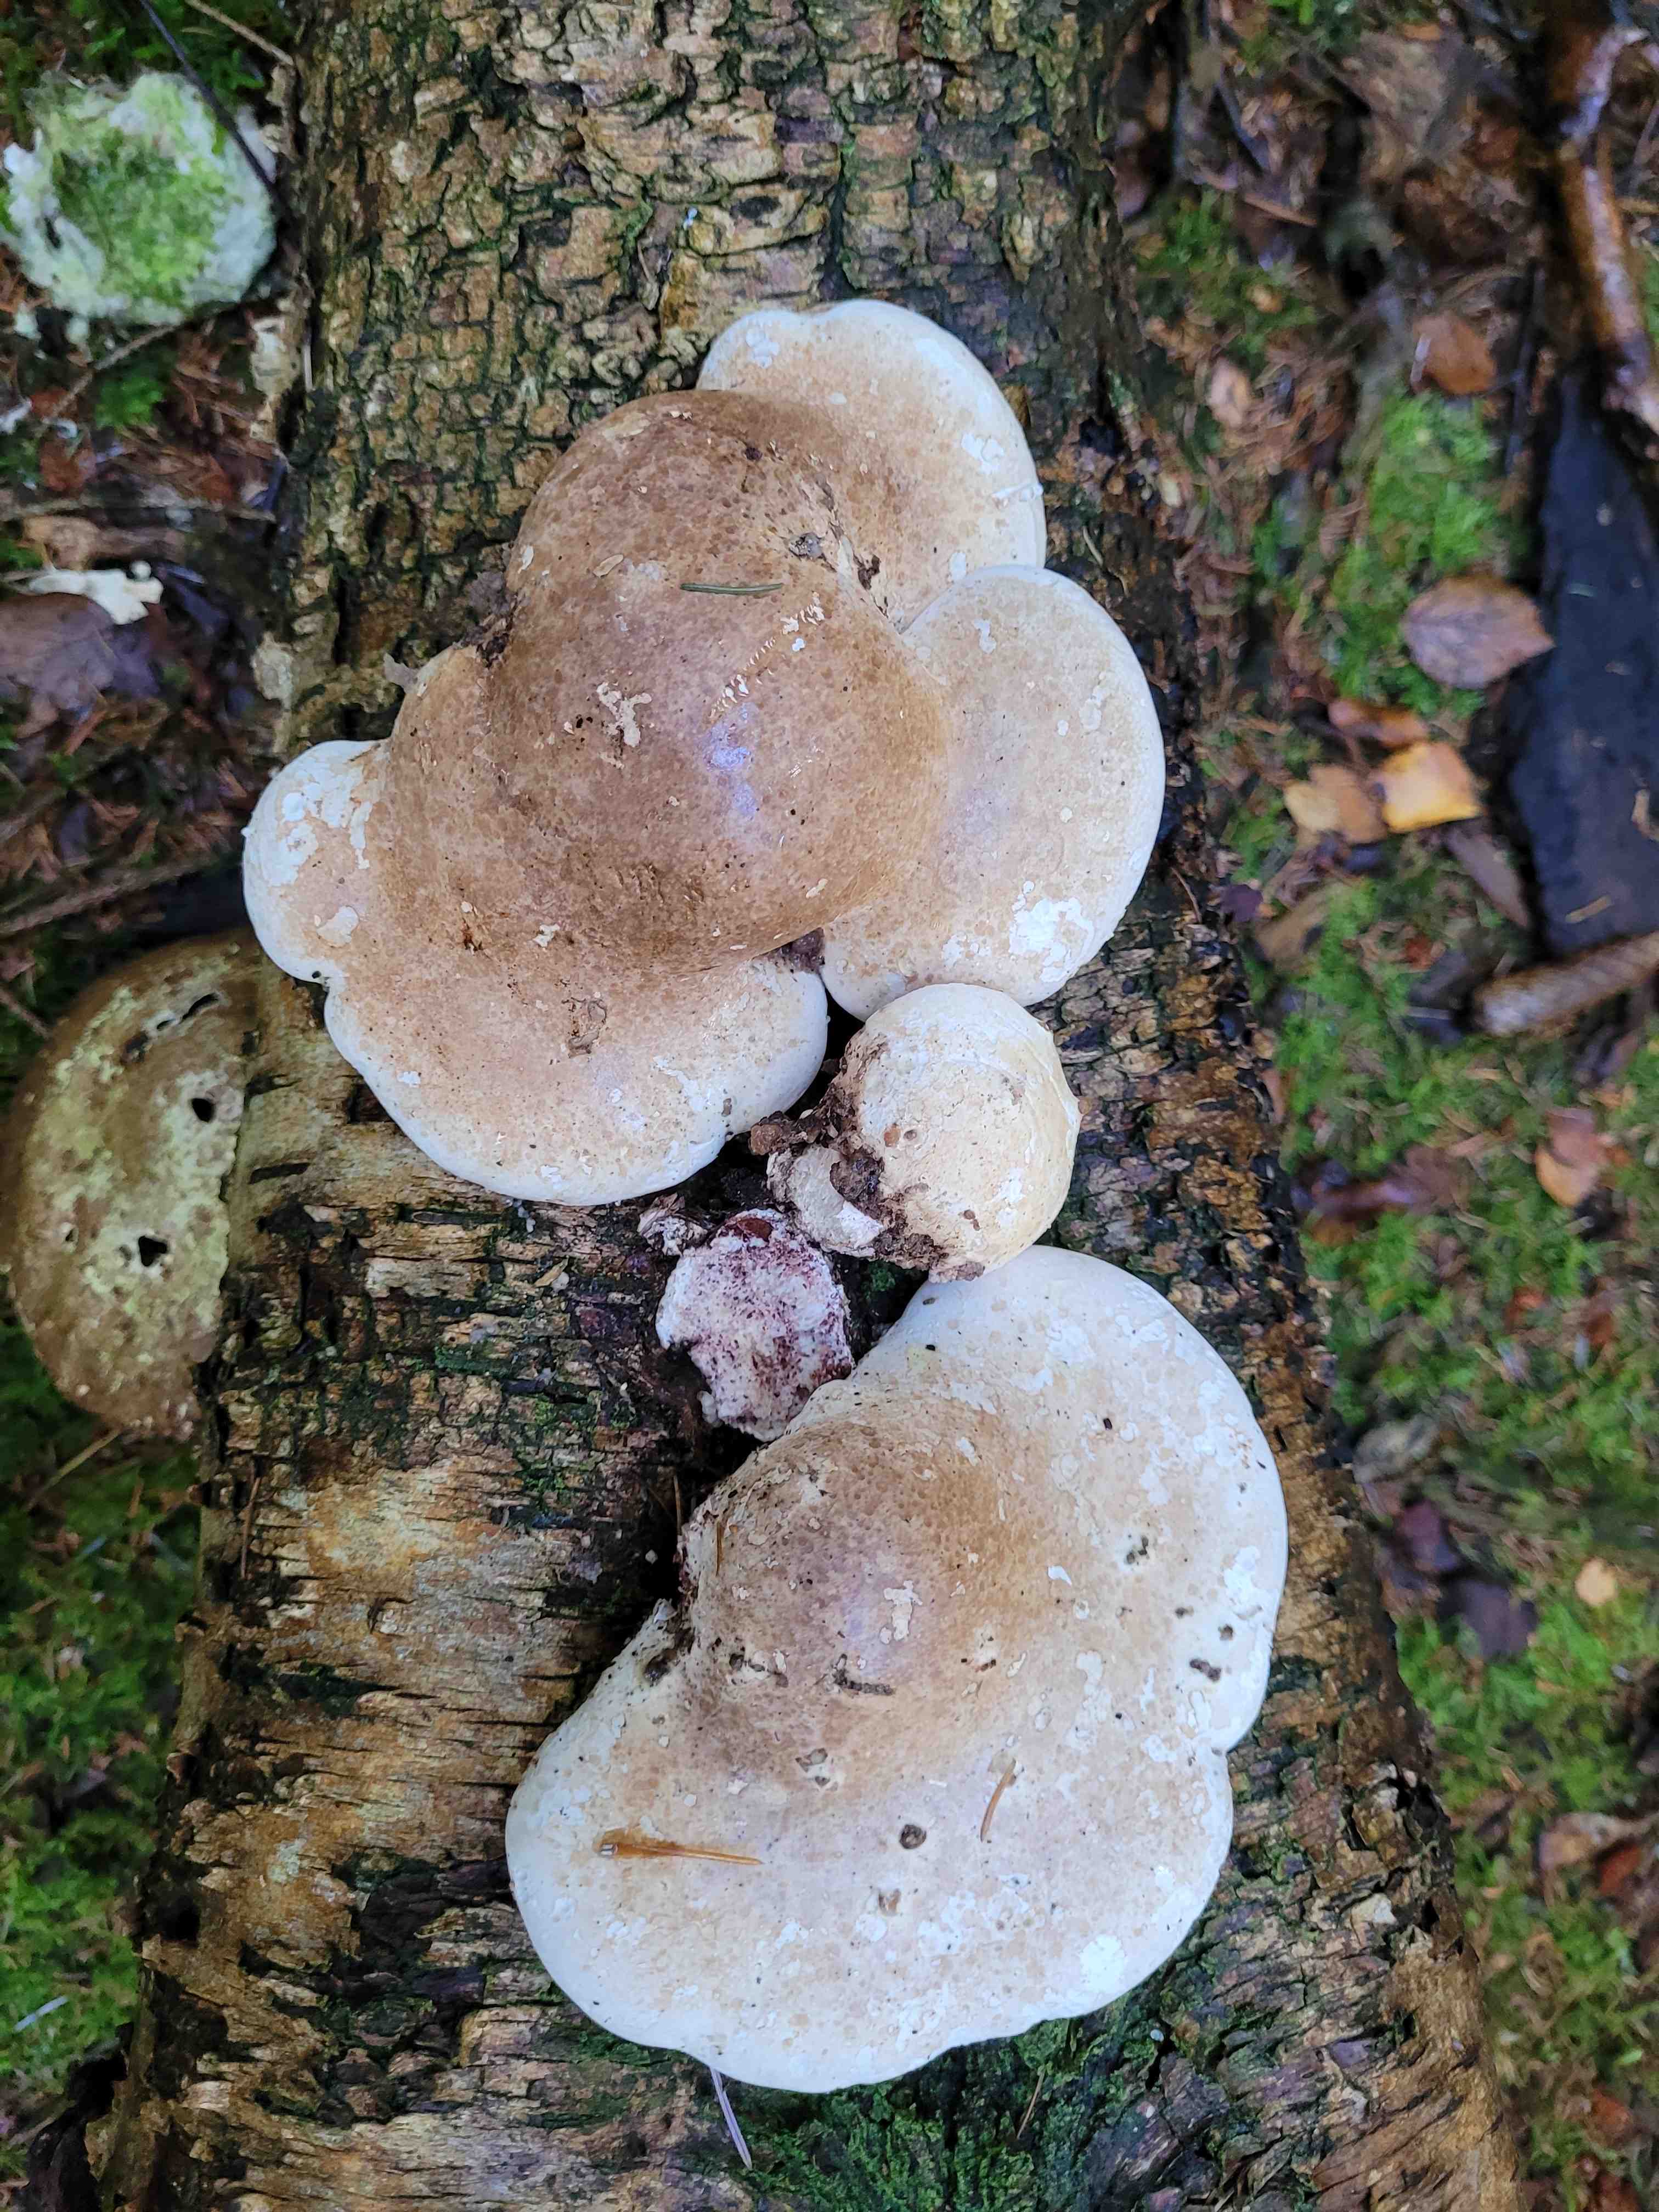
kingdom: Fungi
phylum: Basidiomycota
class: Agaricomycetes
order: Polyporales
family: Fomitopsidaceae
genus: Fomitopsis
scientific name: Fomitopsis betulina
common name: birkeporesvamp
